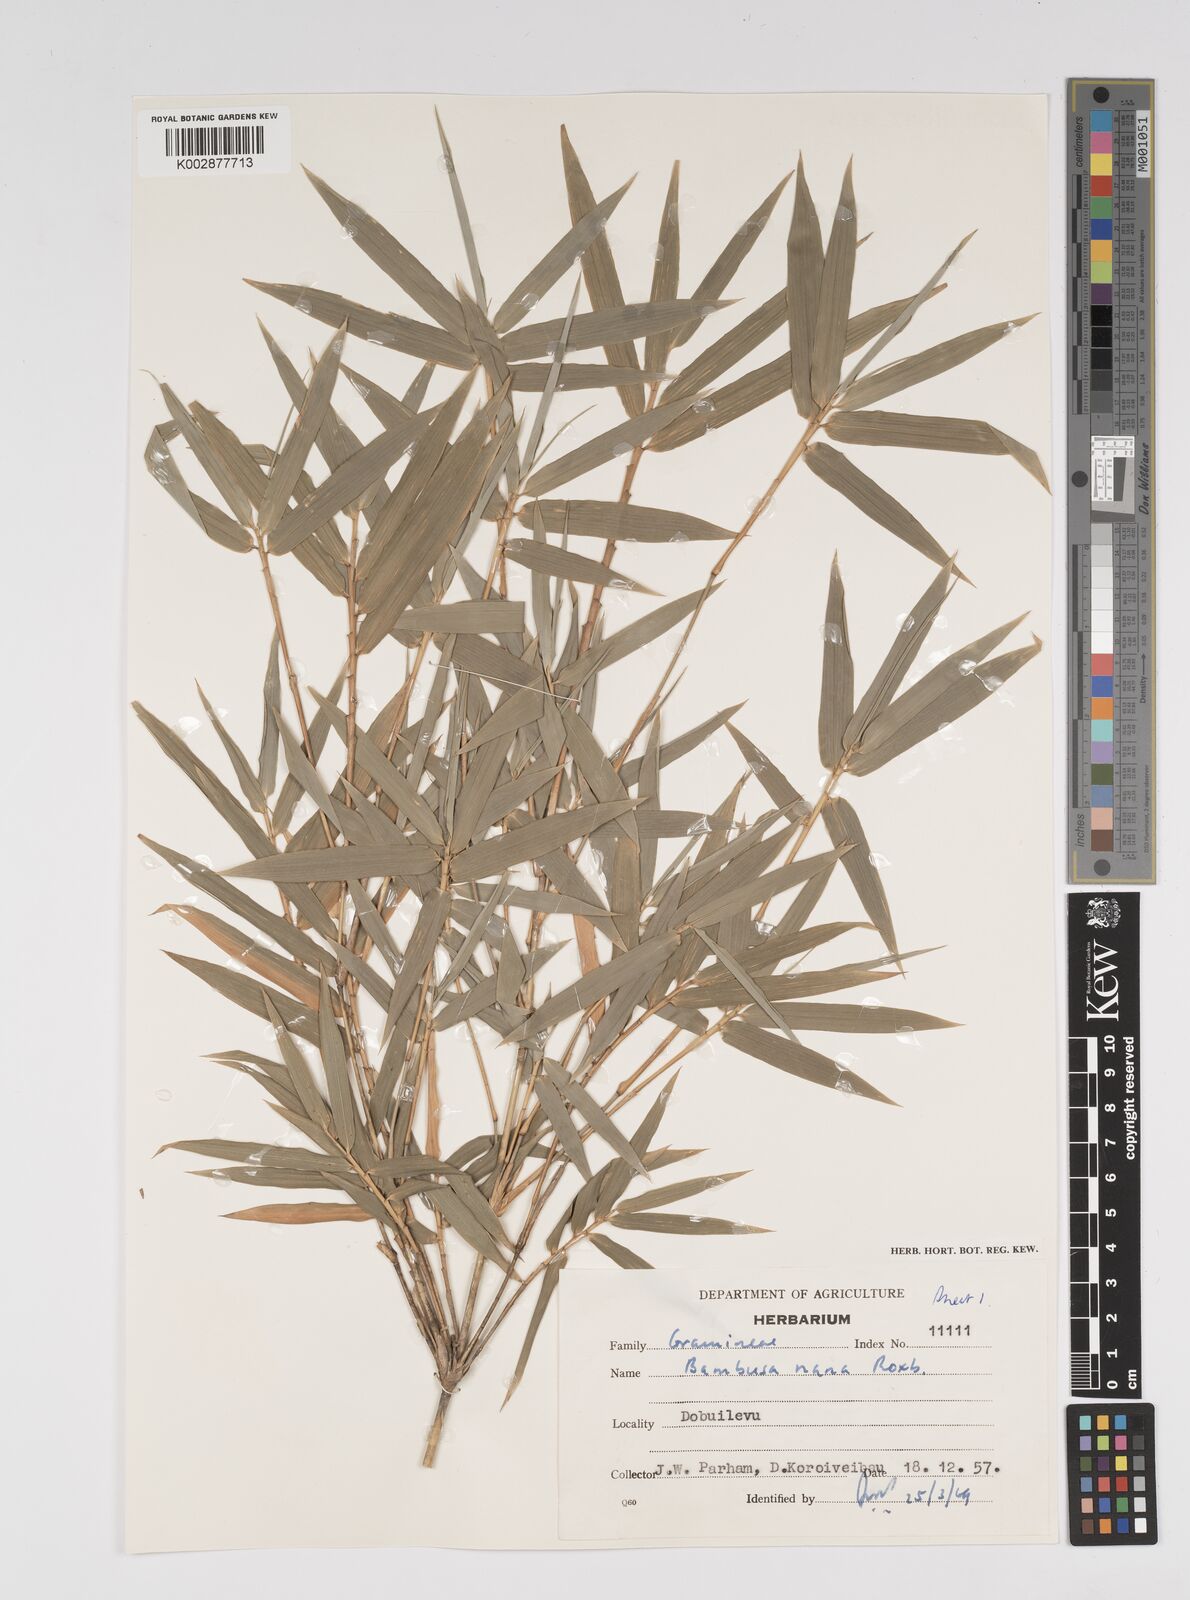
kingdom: Plantae
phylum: Tracheophyta
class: Liliopsida
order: Poales
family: Poaceae
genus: Bambusa
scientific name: Bambusa multiplex
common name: Hedge bamboo
